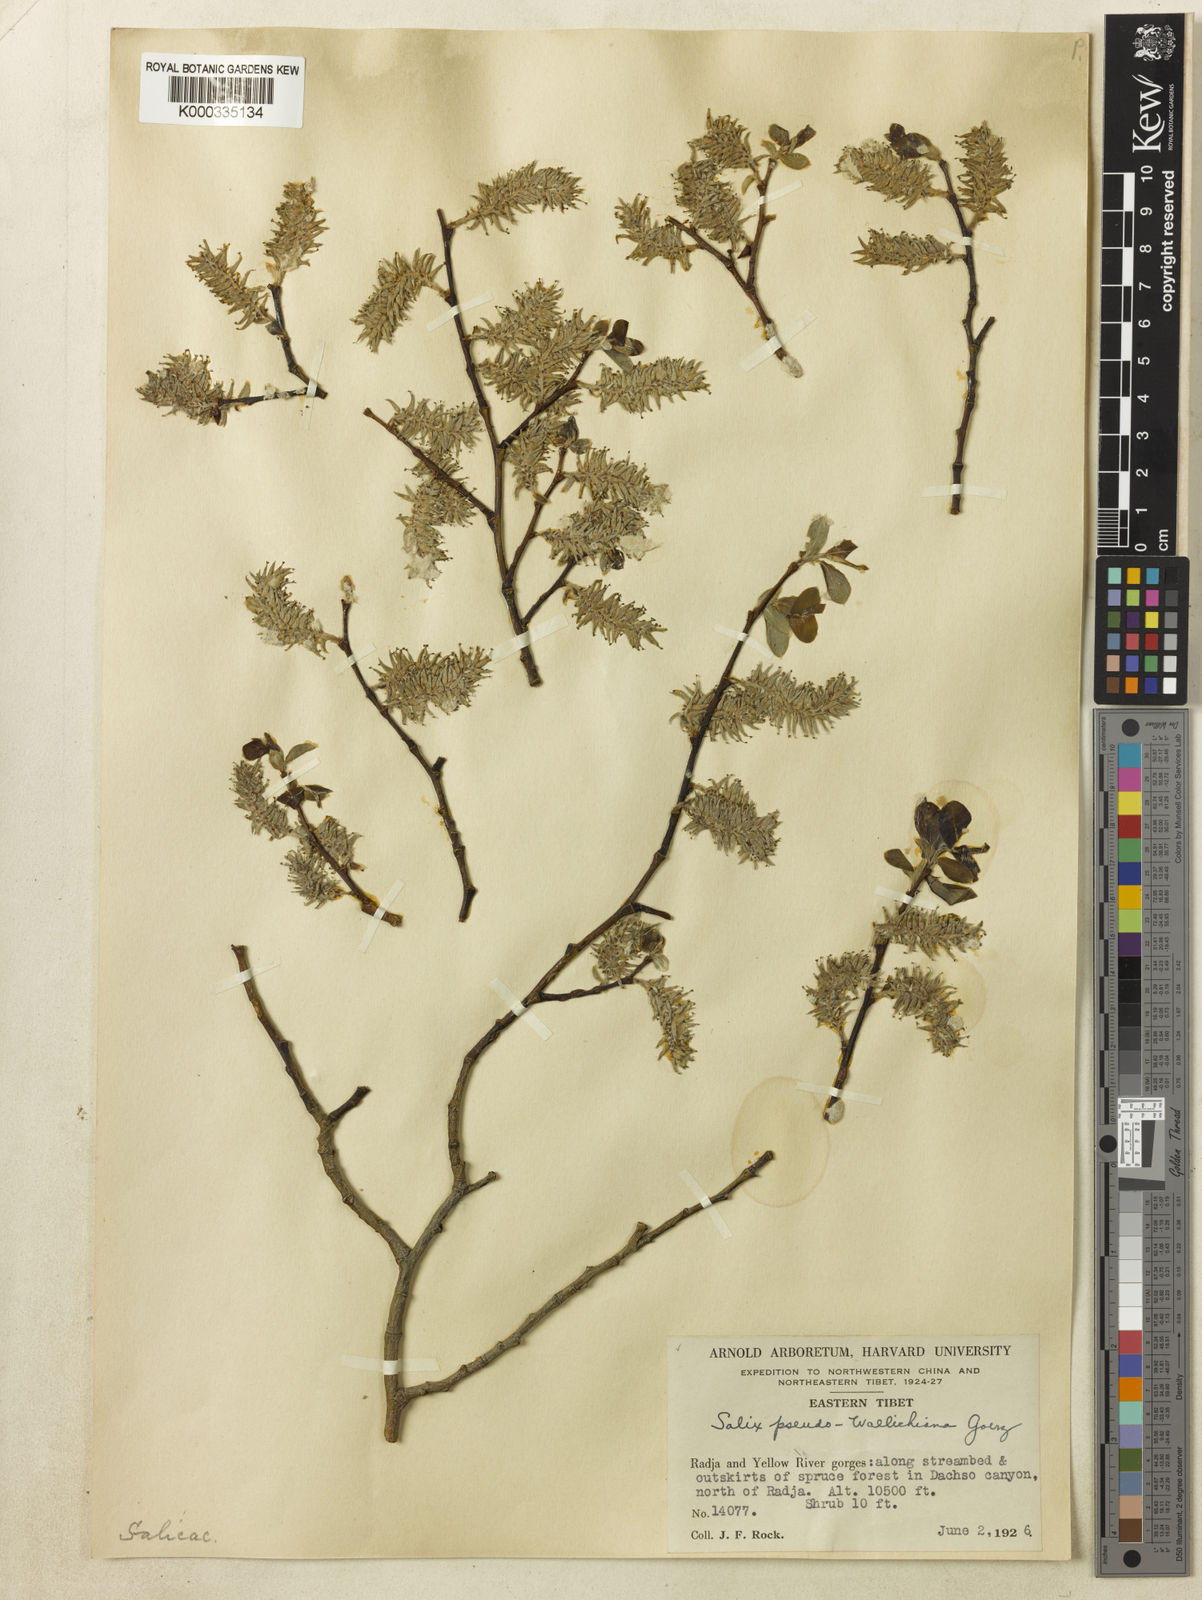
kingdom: Plantae
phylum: Tracheophyta
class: Magnoliopsida
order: Malpighiales
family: Salicaceae
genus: Salix
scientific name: Salix
